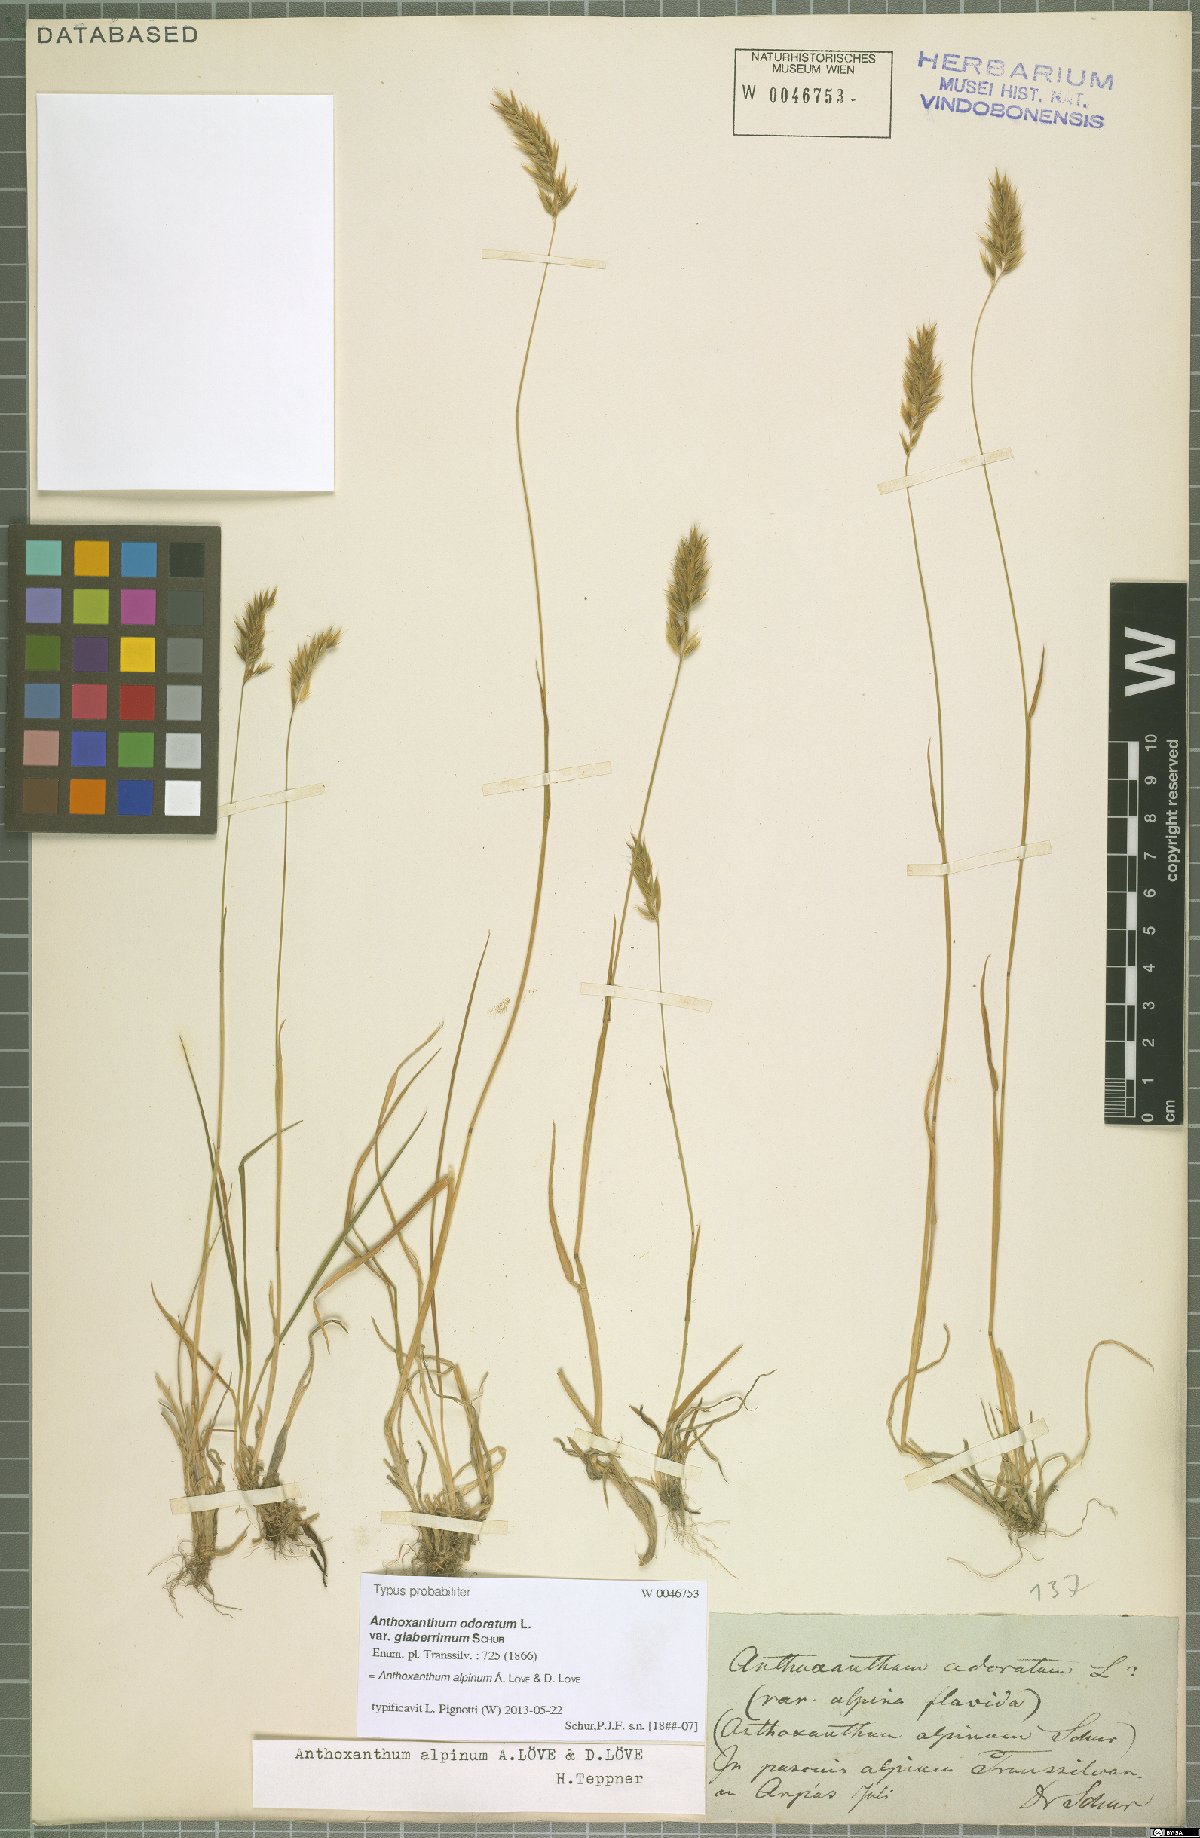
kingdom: Plantae
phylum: Tracheophyta
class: Liliopsida
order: Poales
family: Poaceae
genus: Anthoxanthum
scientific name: Anthoxanthum nipponicum
